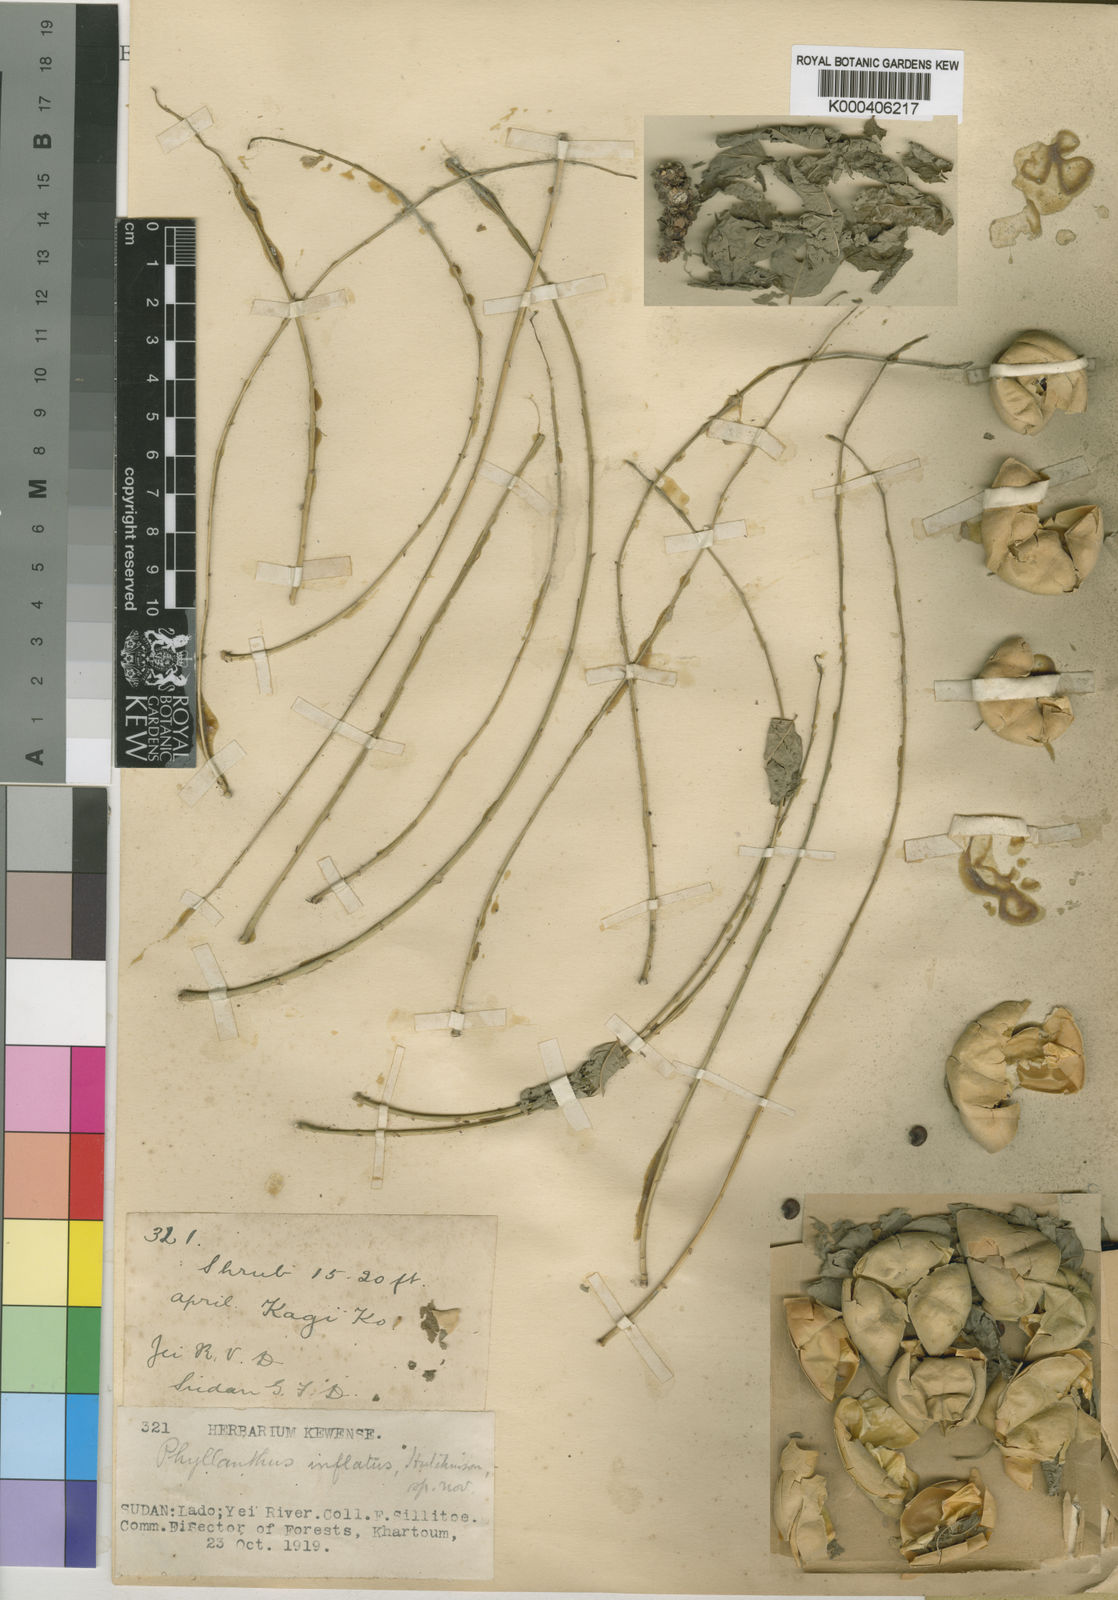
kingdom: Plantae
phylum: Tracheophyta
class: Magnoliopsida
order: Malpighiales
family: Phyllanthaceae
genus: Phyllanthus
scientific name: Phyllanthus inflatus
